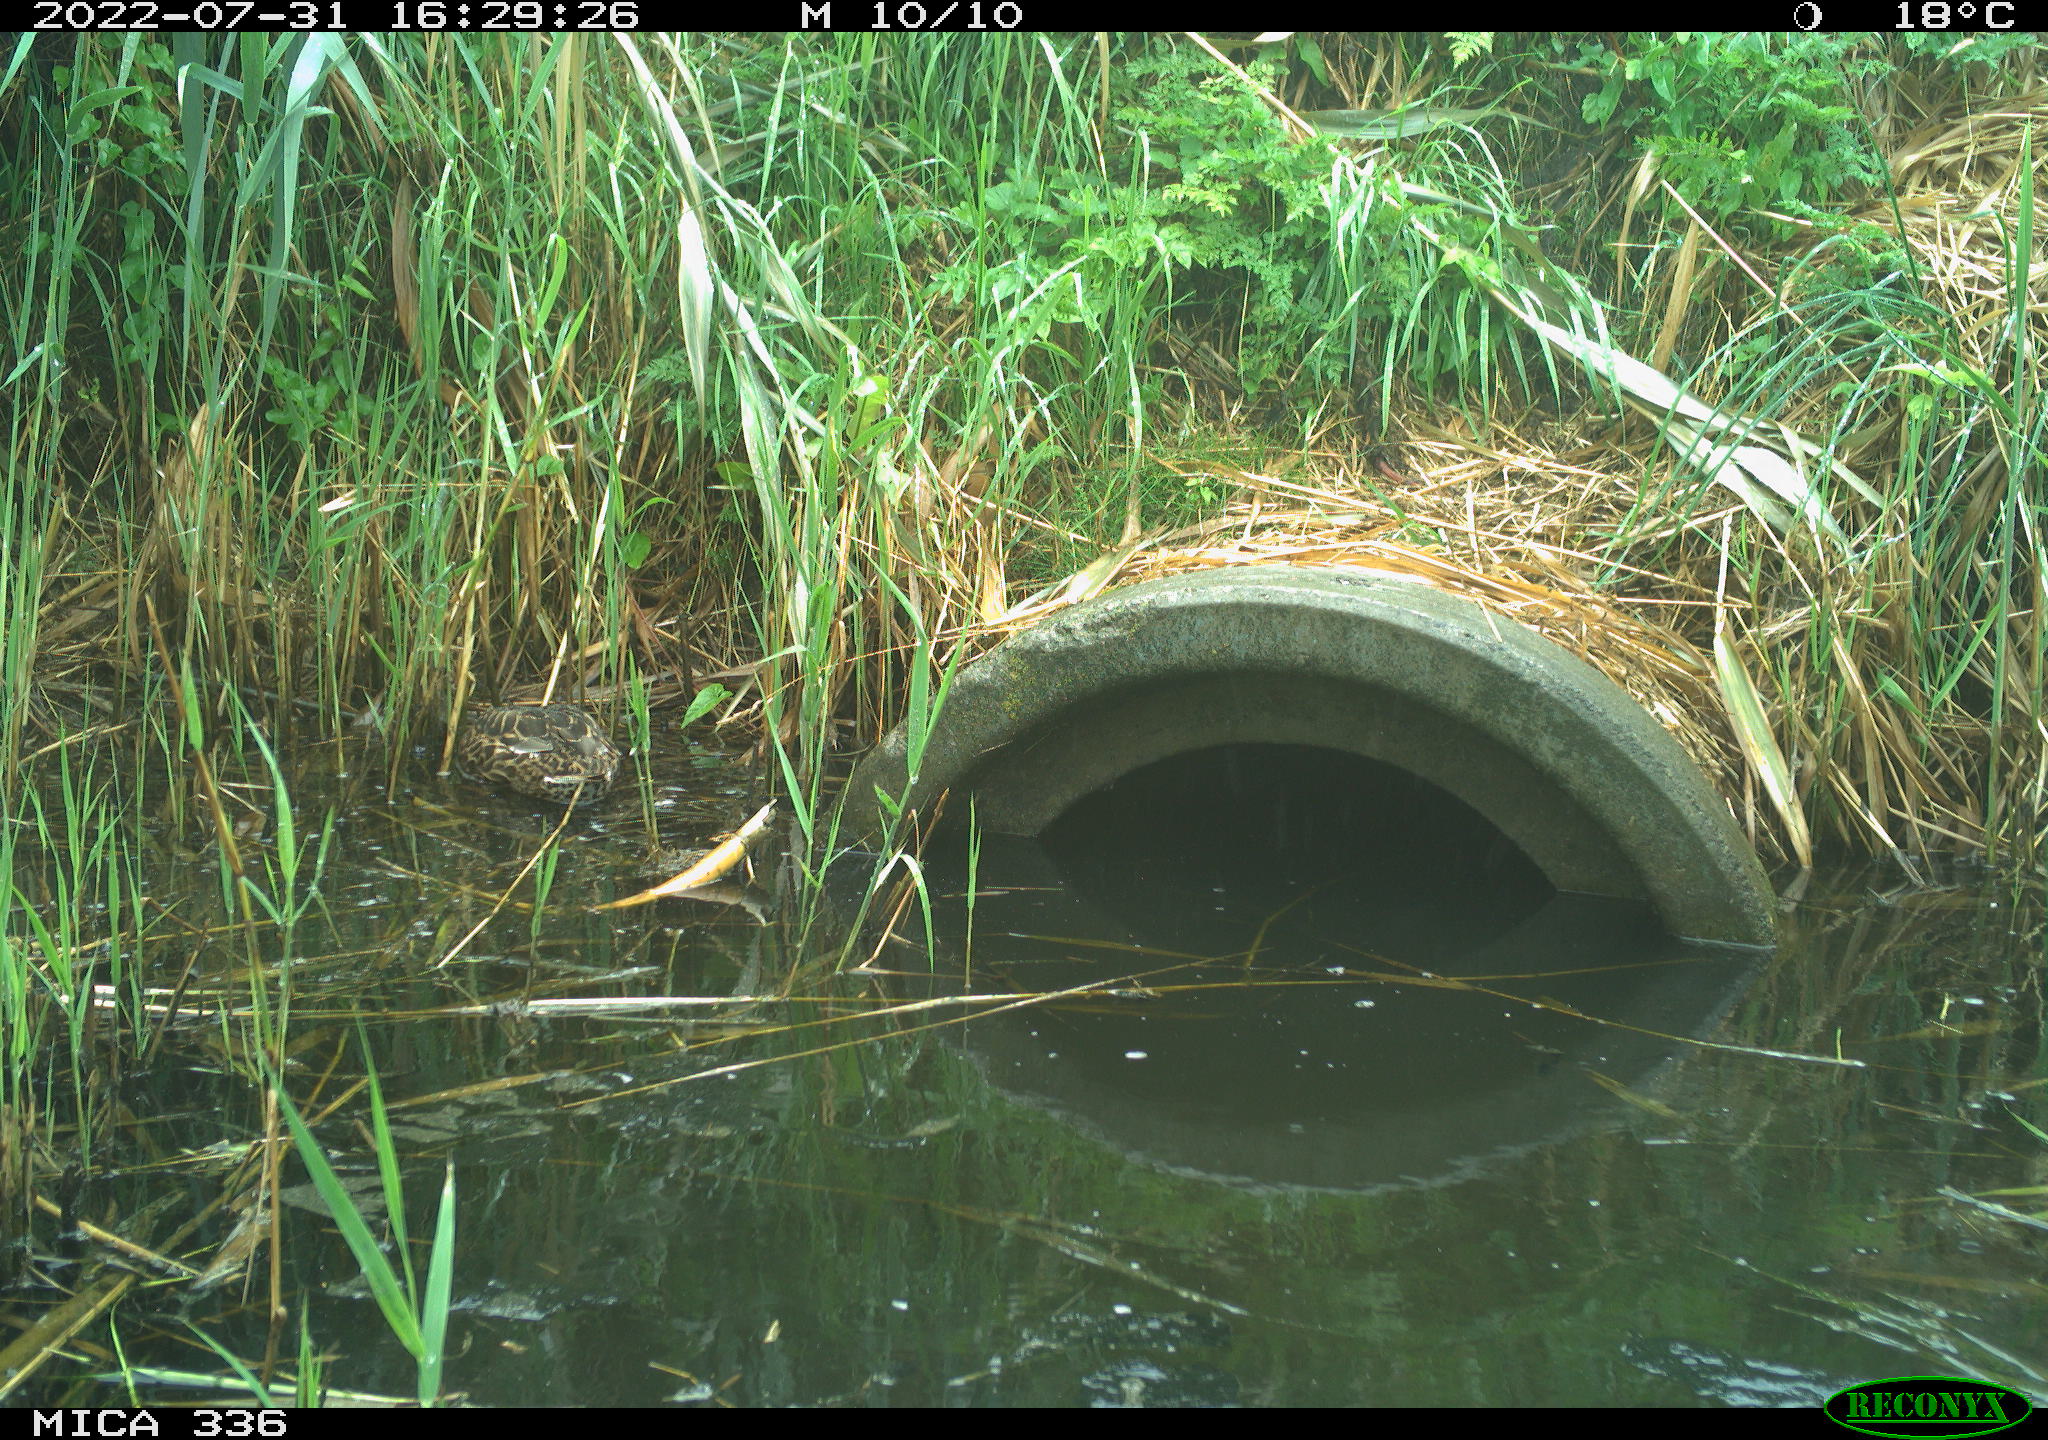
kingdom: Animalia
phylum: Chordata
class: Aves
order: Anseriformes
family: Anatidae
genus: Anas
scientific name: Anas platyrhynchos
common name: Mallard
